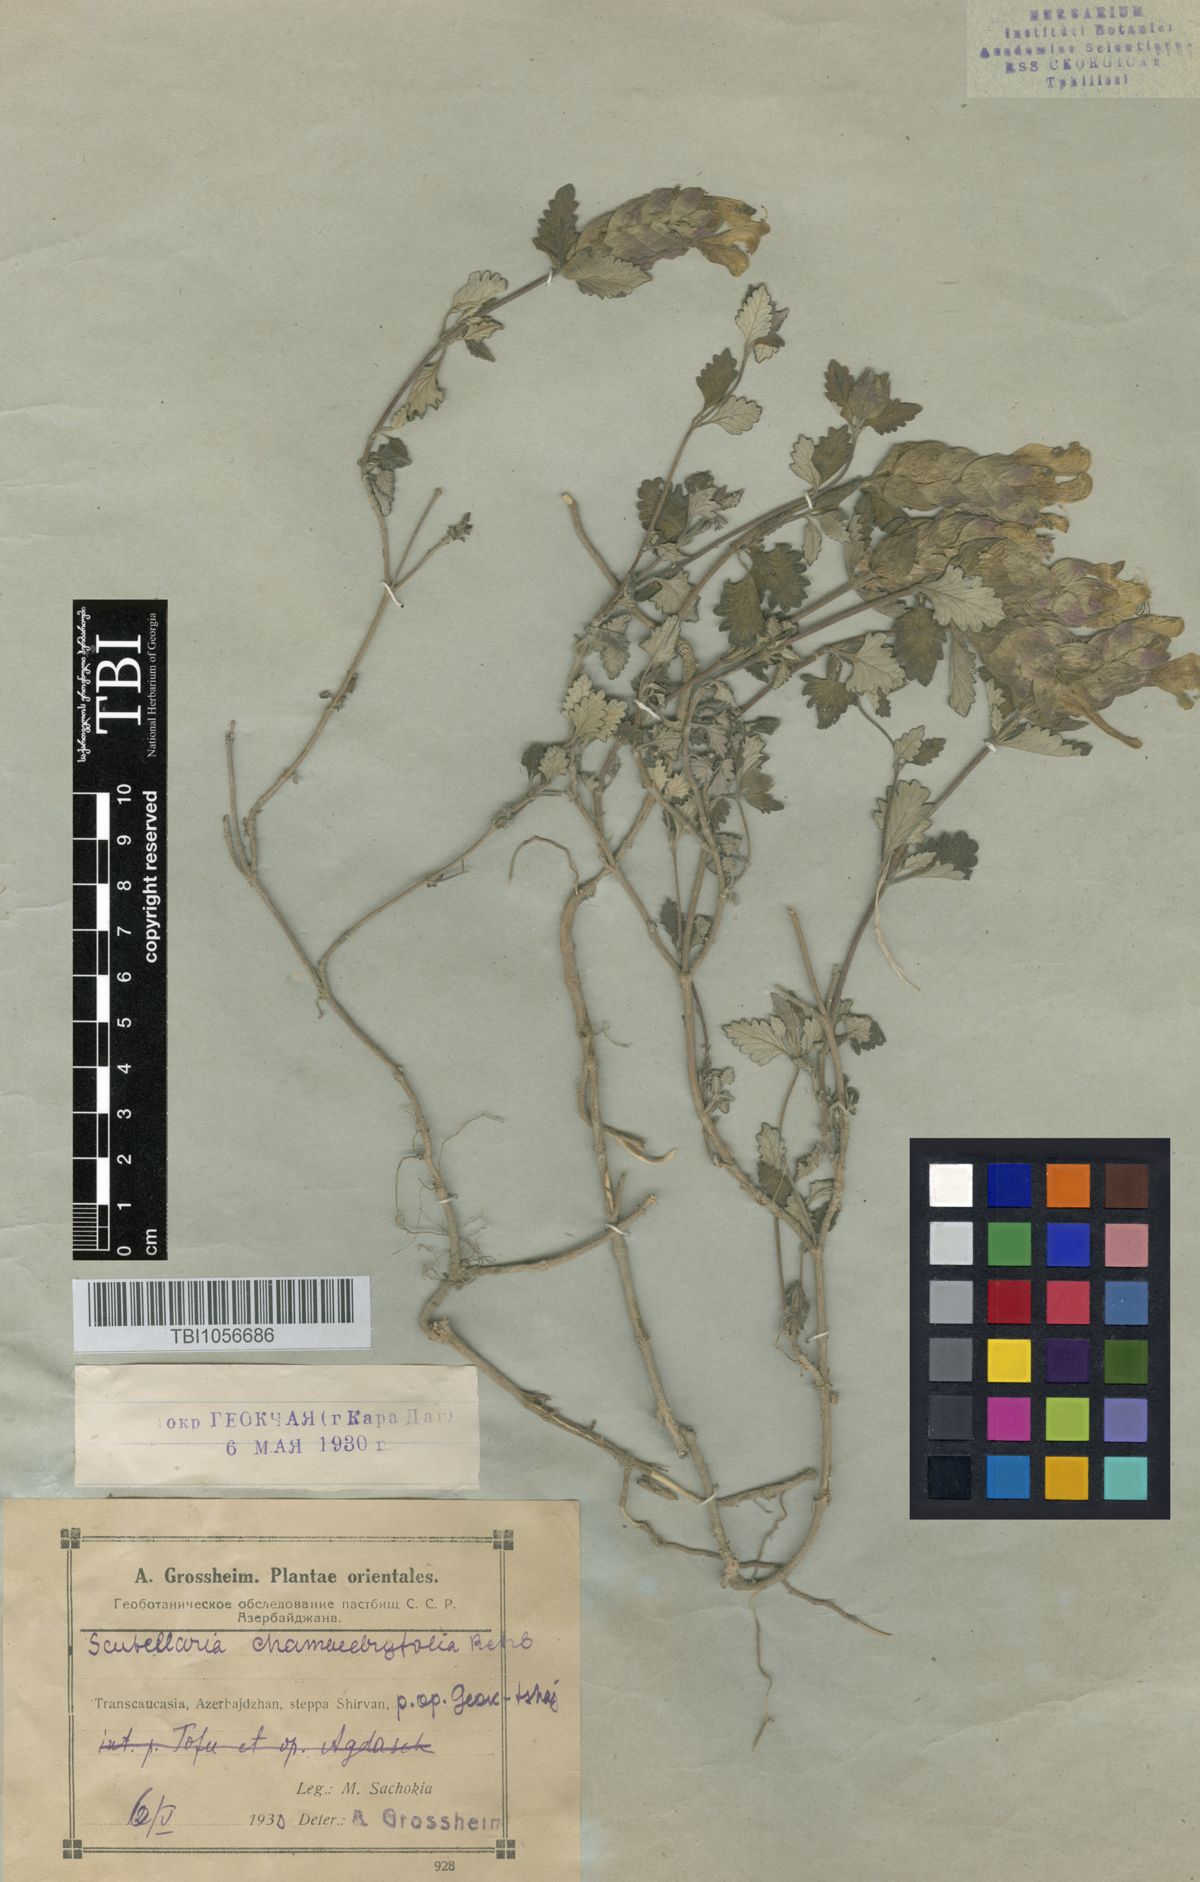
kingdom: Plantae
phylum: Tracheophyta
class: Magnoliopsida
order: Lamiales
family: Lamiaceae
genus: Scutellaria
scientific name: Scutellaria orientalis
